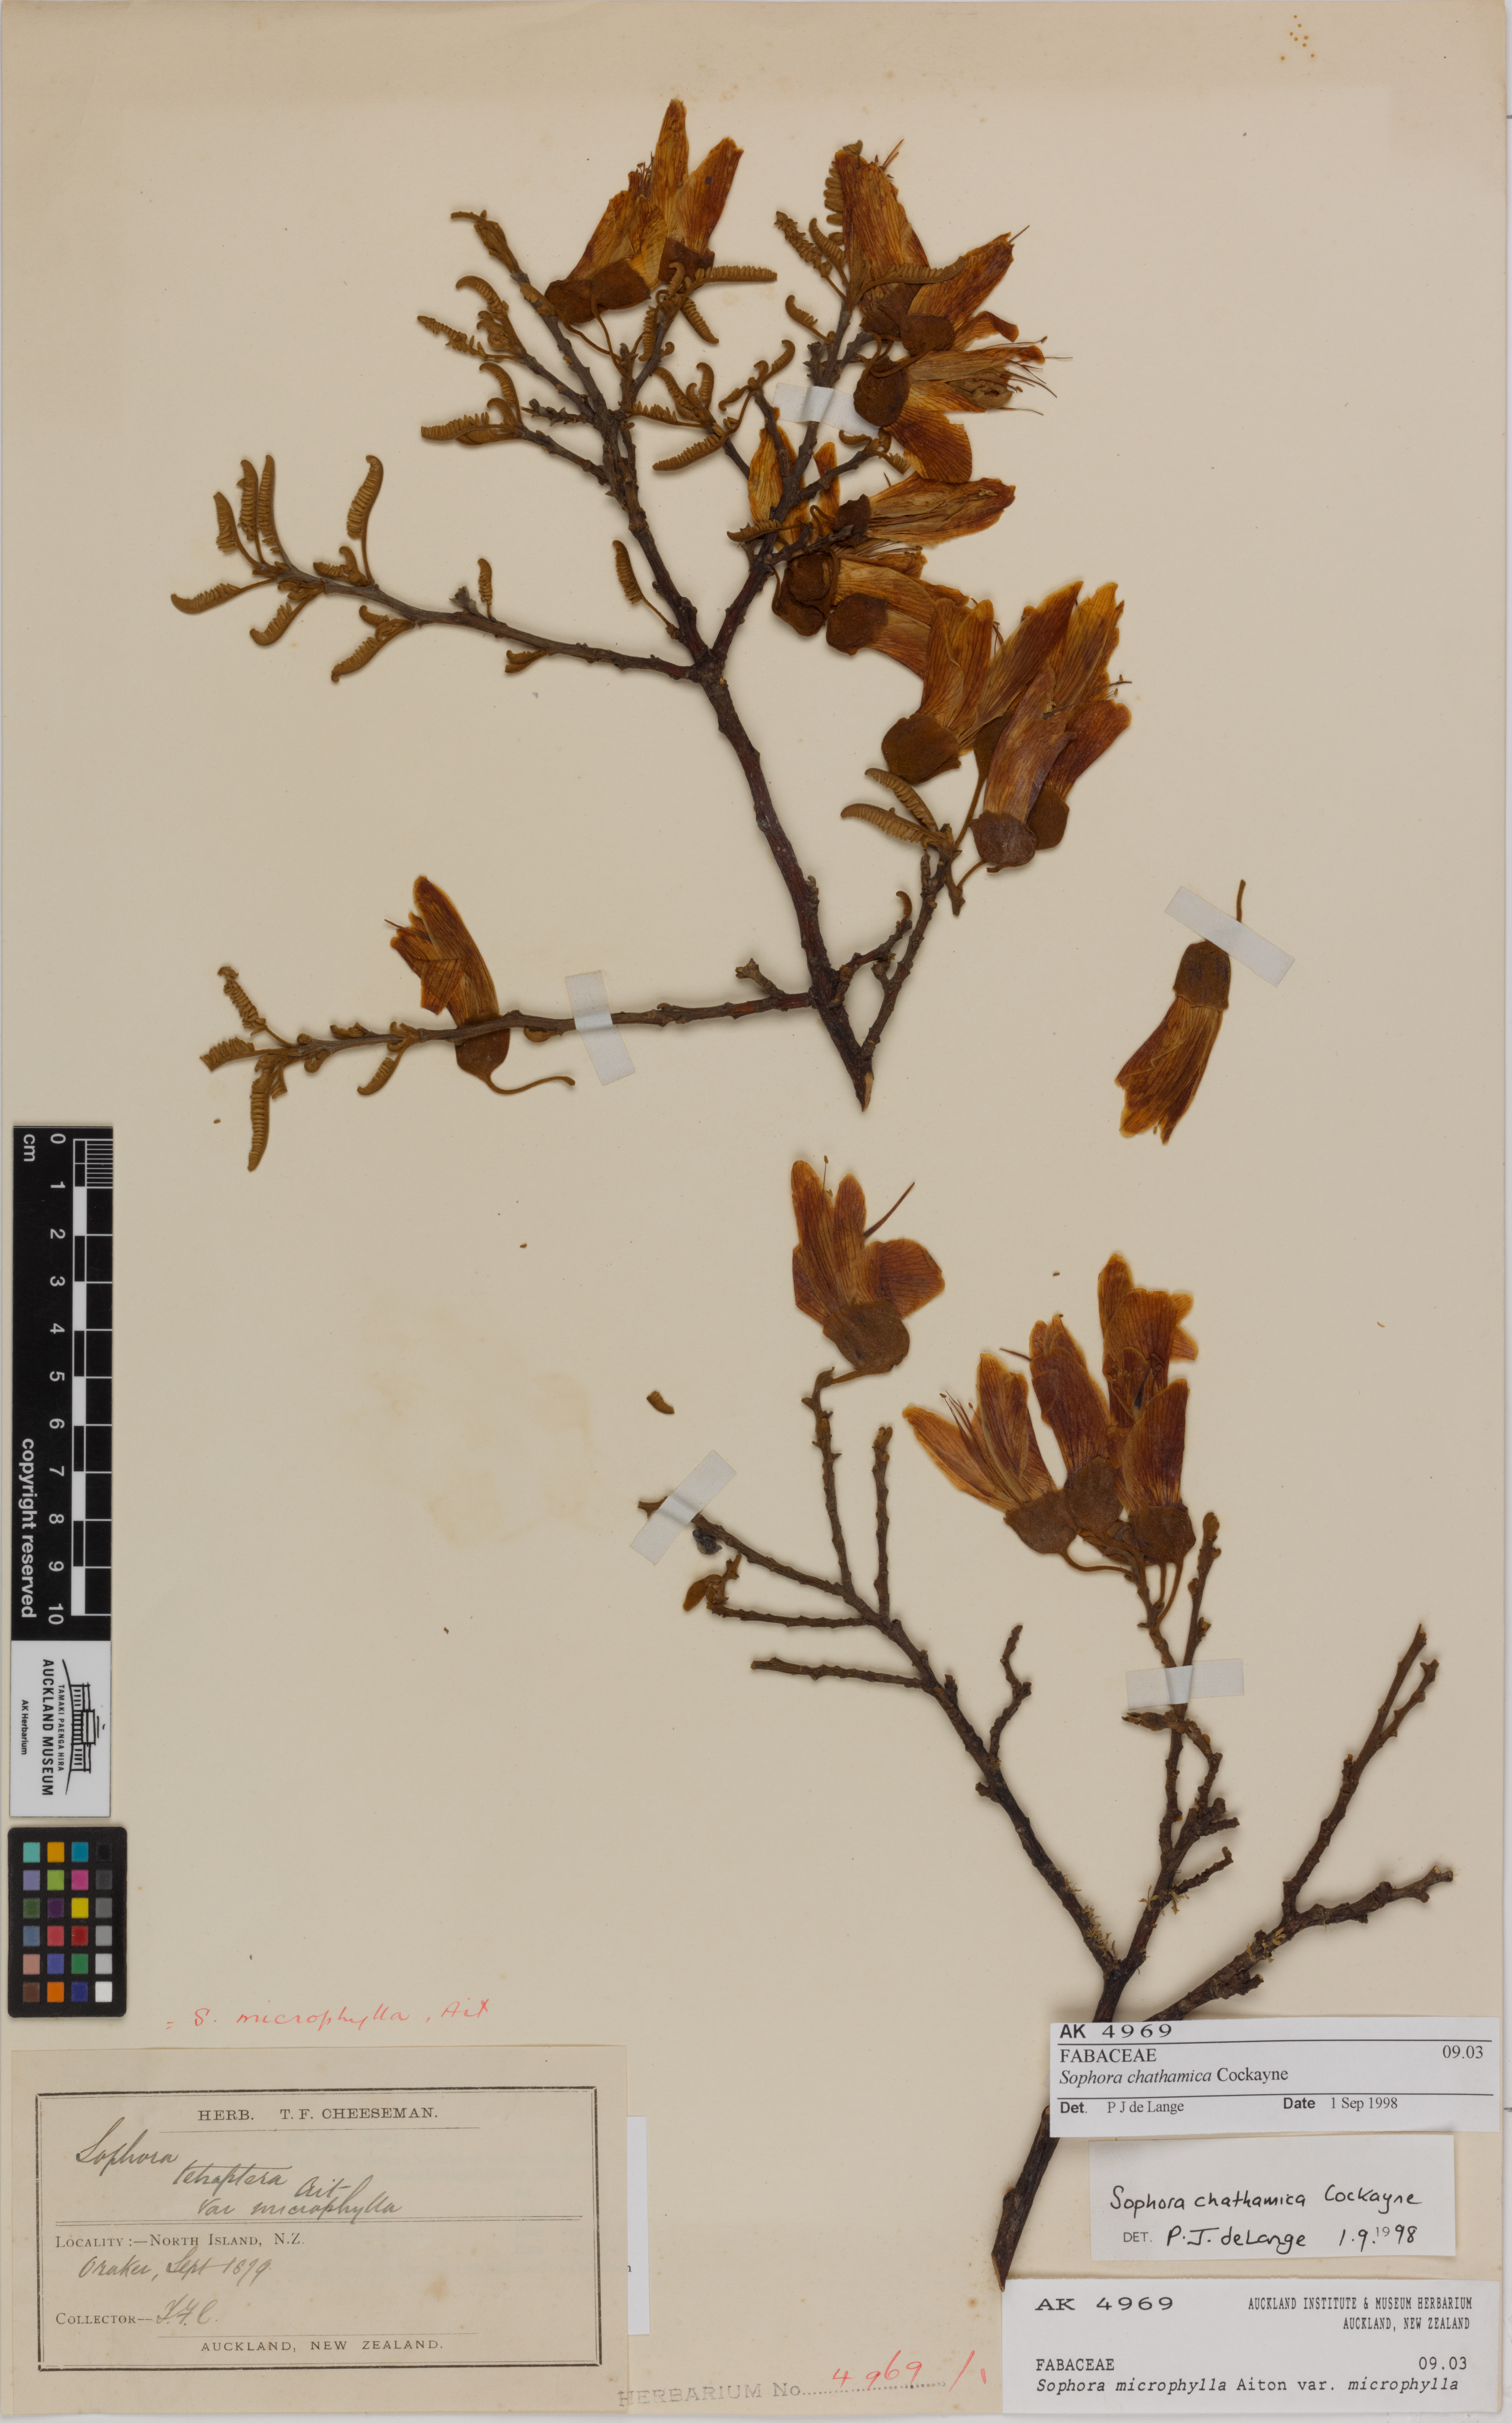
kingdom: Plantae
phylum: Tracheophyta
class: Magnoliopsida
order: Fabales
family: Fabaceae
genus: Sophora
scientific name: Sophora chathamica
